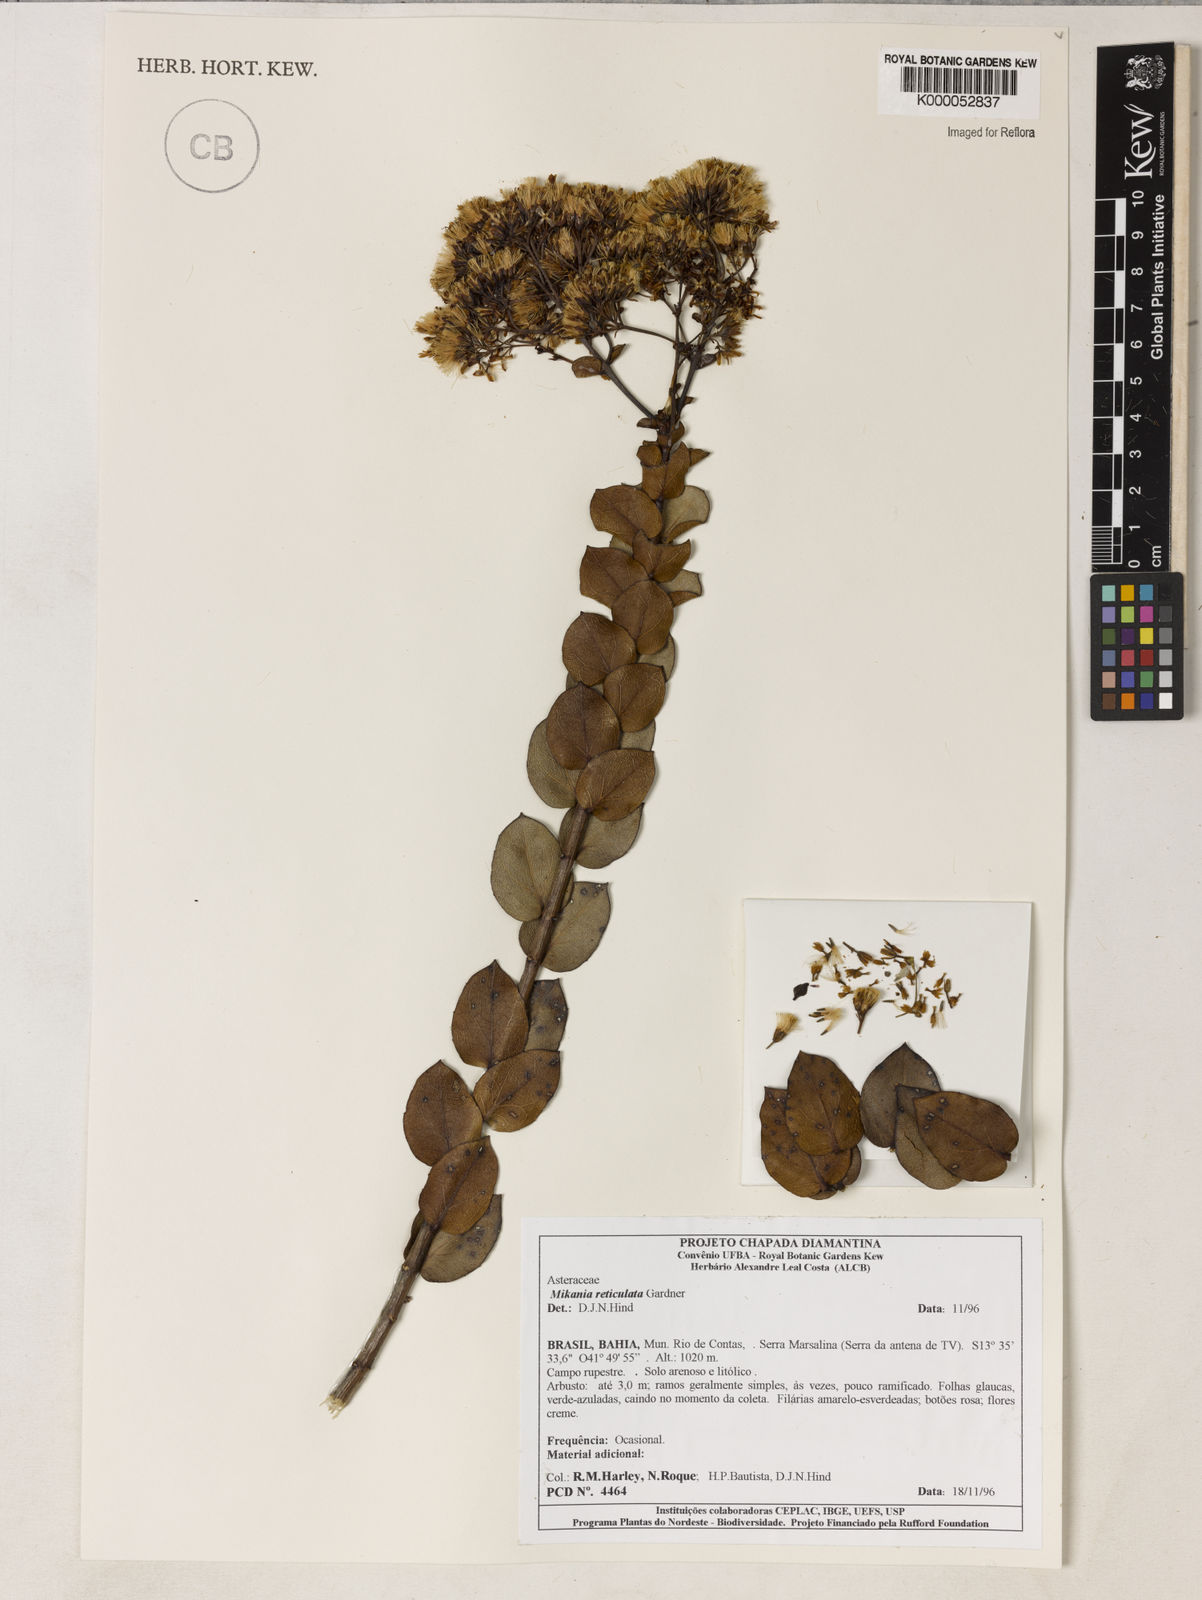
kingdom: Plantae
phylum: Tracheophyta
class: Magnoliopsida
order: Asterales
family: Asteraceae
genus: Mikania
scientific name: Mikania reticulata
